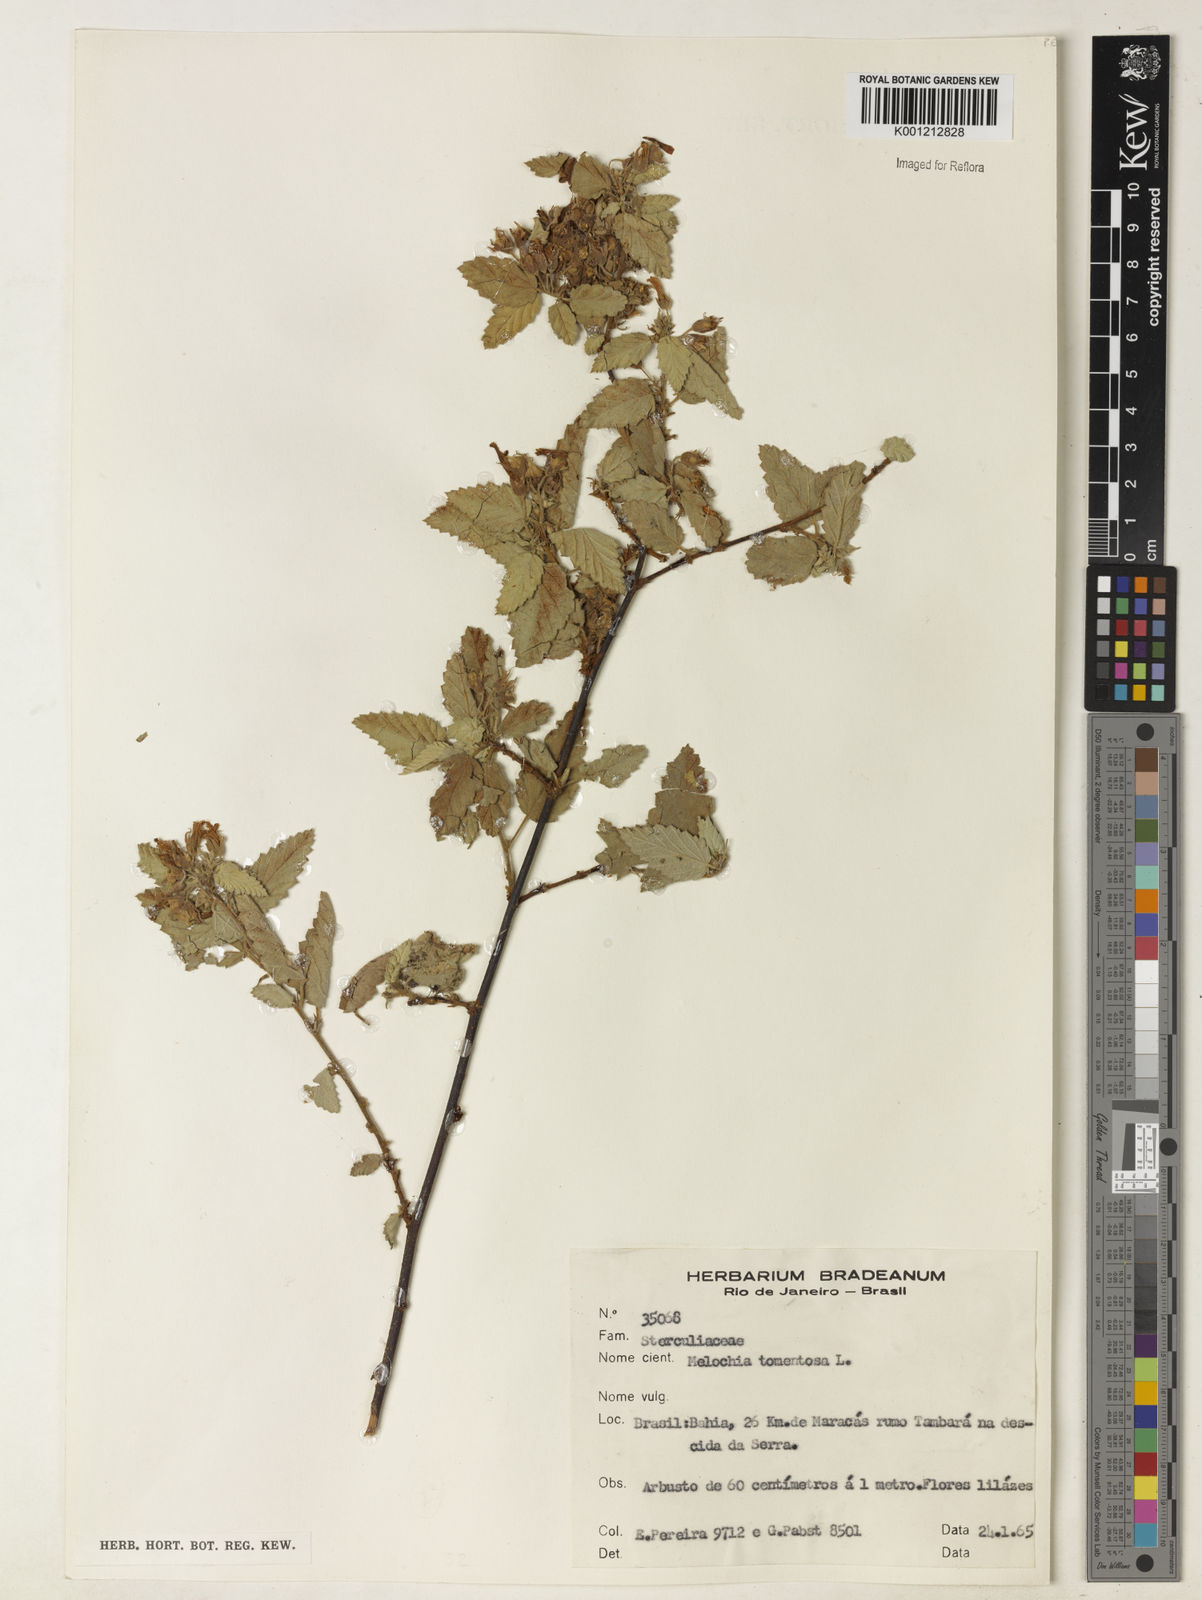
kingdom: Plantae
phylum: Tracheophyta
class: Magnoliopsida
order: Malvales
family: Malvaceae
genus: Melochia
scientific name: Melochia tomentosa
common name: Black torch
